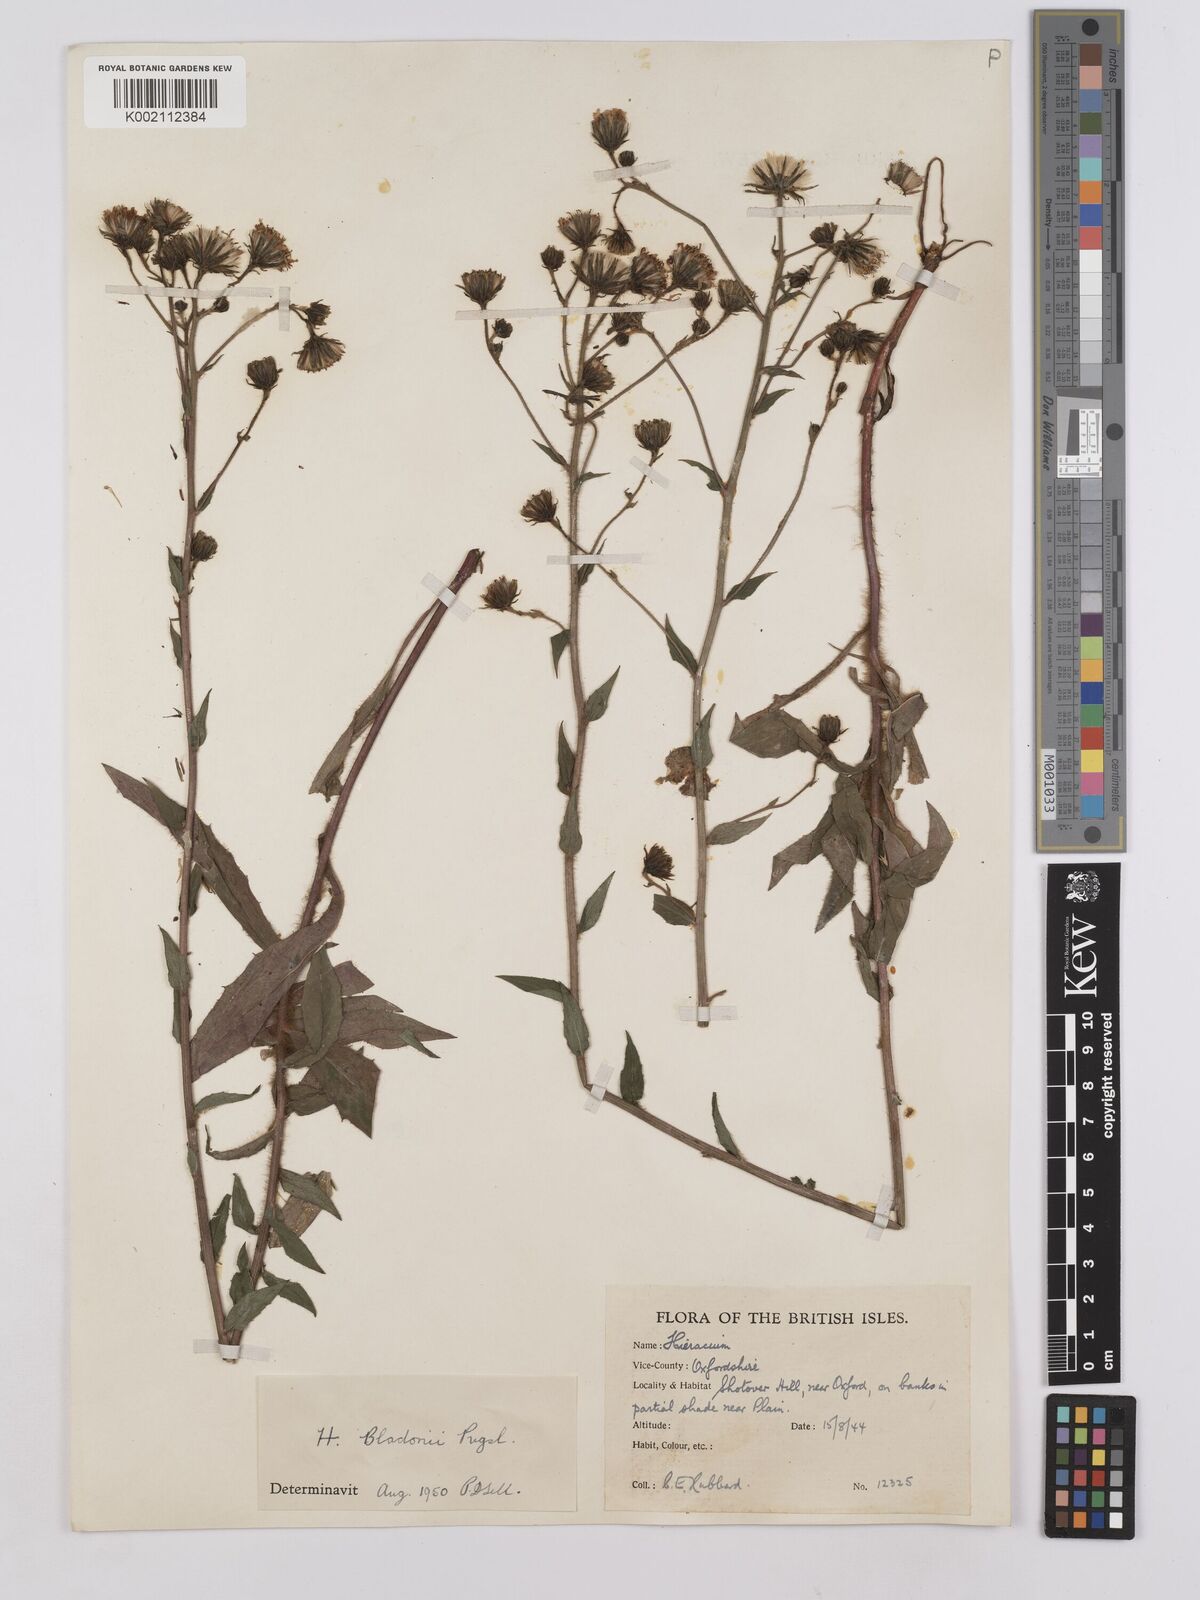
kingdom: Plantae
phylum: Tracheophyta
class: Magnoliopsida
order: Asterales
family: Asteraceae
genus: Hieracium
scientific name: Hieracium sabaudum
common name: New england hawkweed
